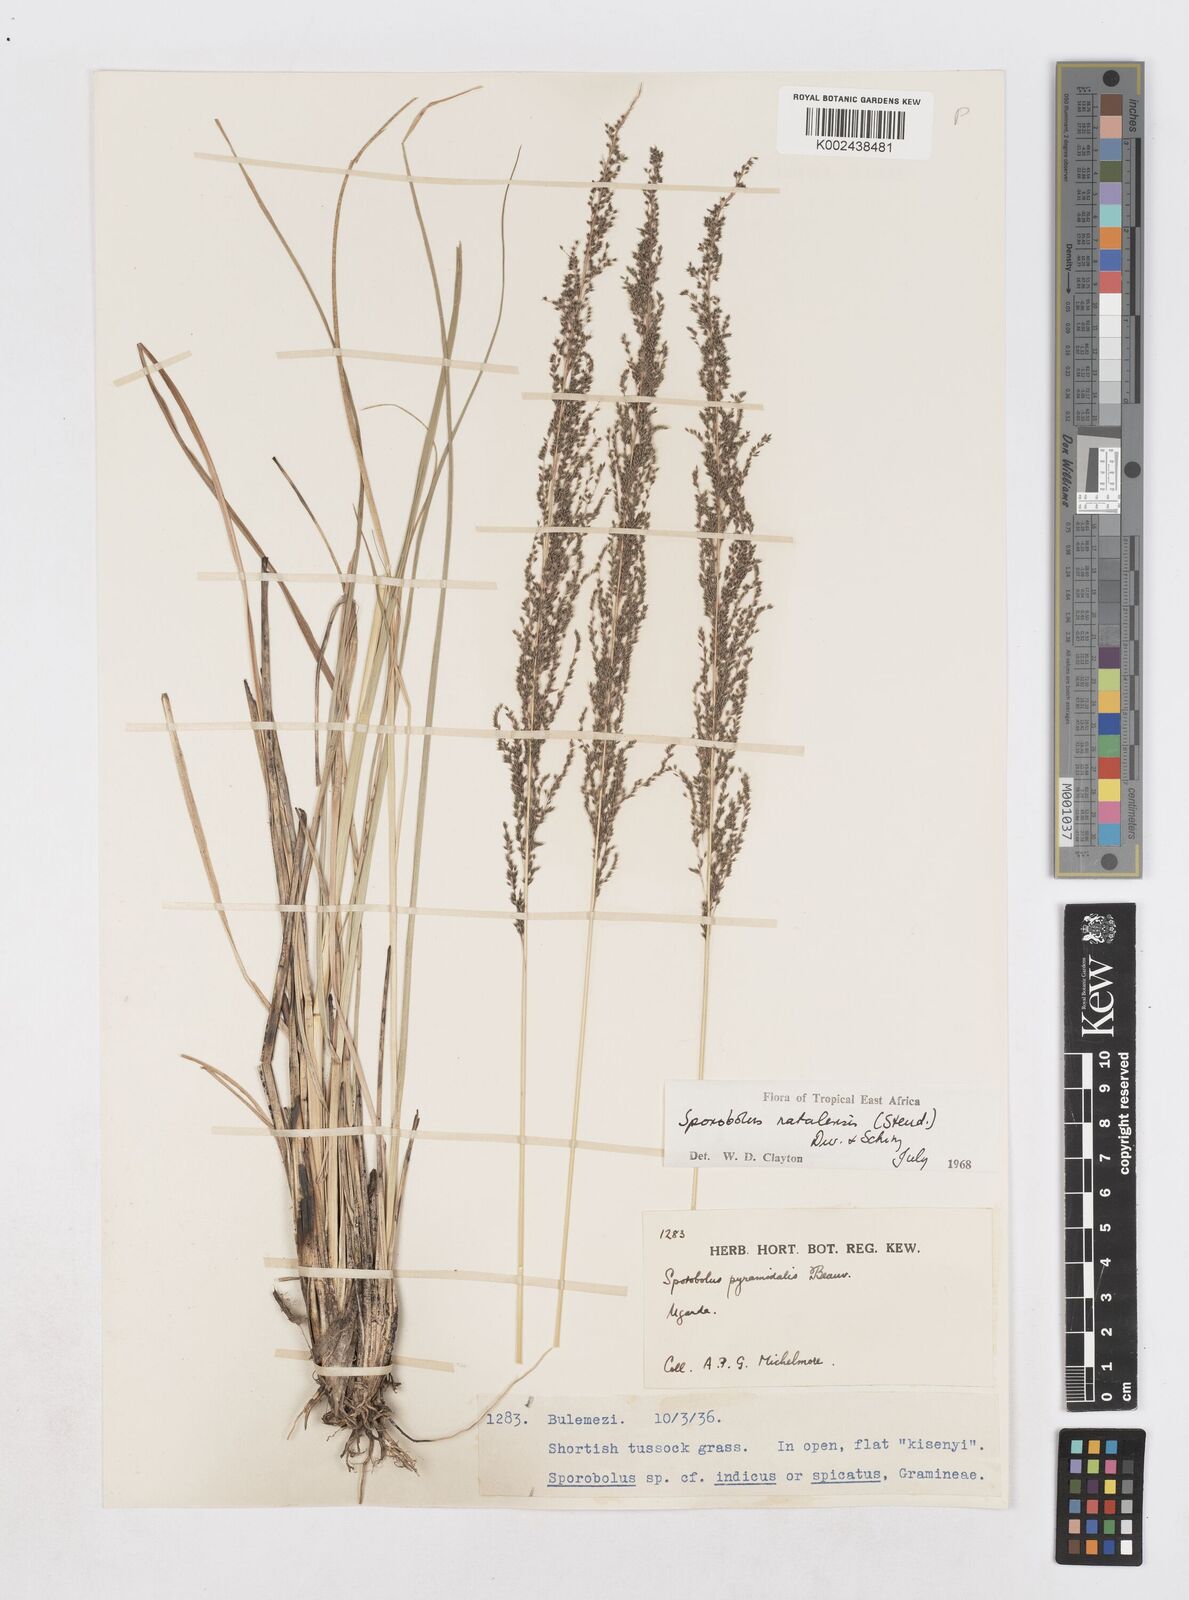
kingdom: Plantae
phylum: Tracheophyta
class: Liliopsida
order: Poales
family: Poaceae
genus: Sporobolus
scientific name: Sporobolus natalensis
